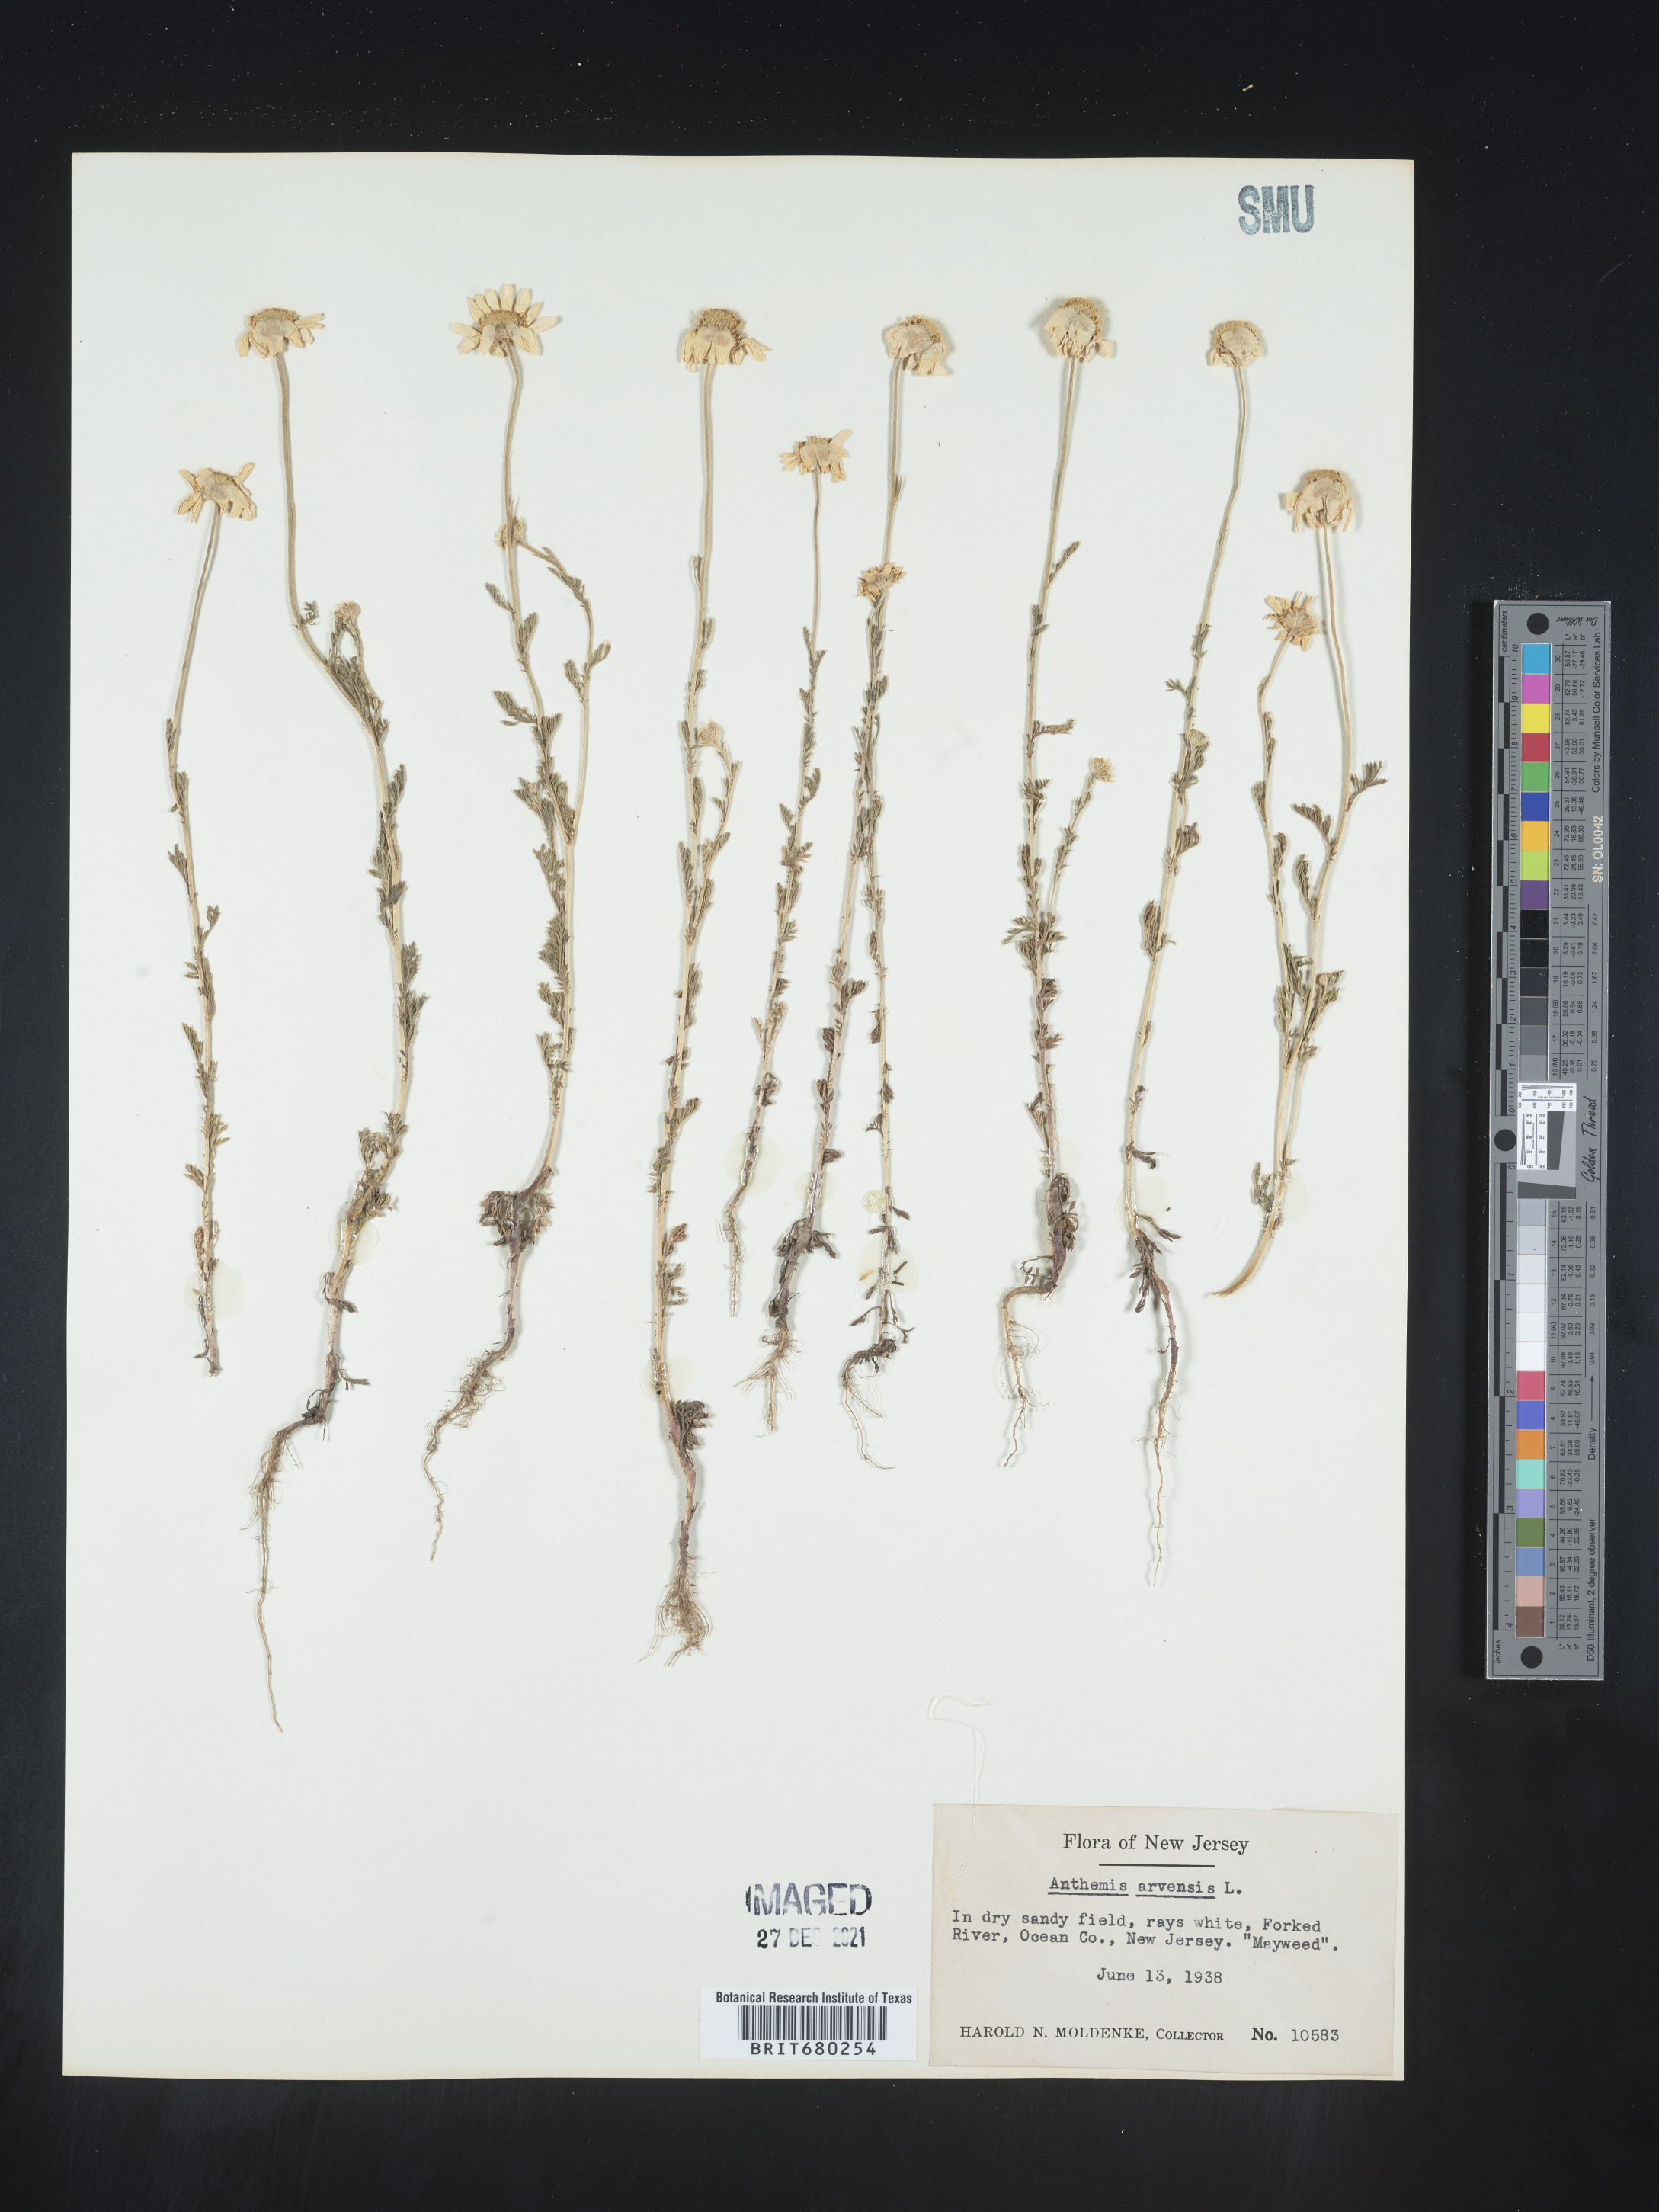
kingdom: Plantae
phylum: Tracheophyta
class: Magnoliopsida
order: Asterales
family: Asteraceae
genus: Anthemis
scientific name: Anthemis arvensis
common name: Corn chamomile
